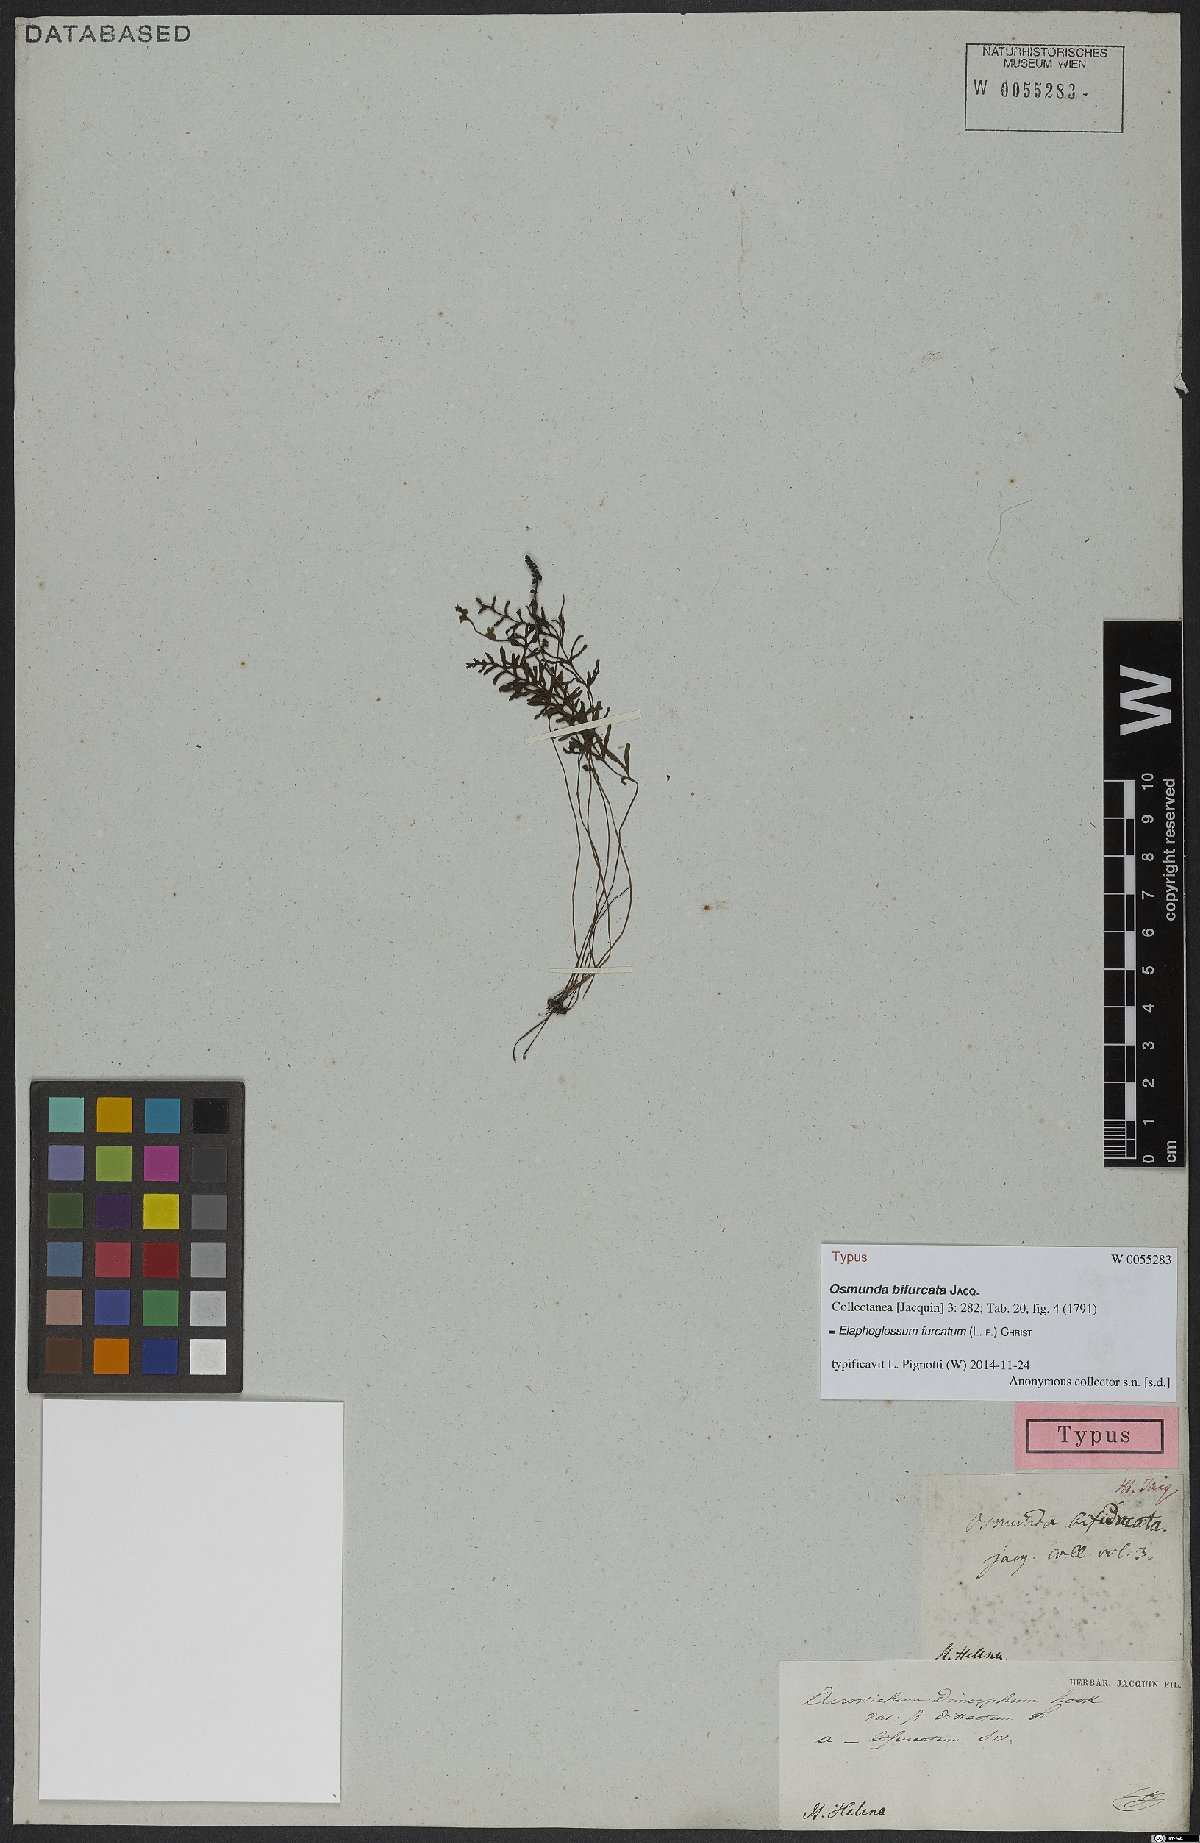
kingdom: Plantae
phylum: Tracheophyta
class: Polypodiopsida
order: Polypodiales
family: Dryopteridaceae
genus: Elaphoglossum
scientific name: Elaphoglossum furcatum
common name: Mossy fern
